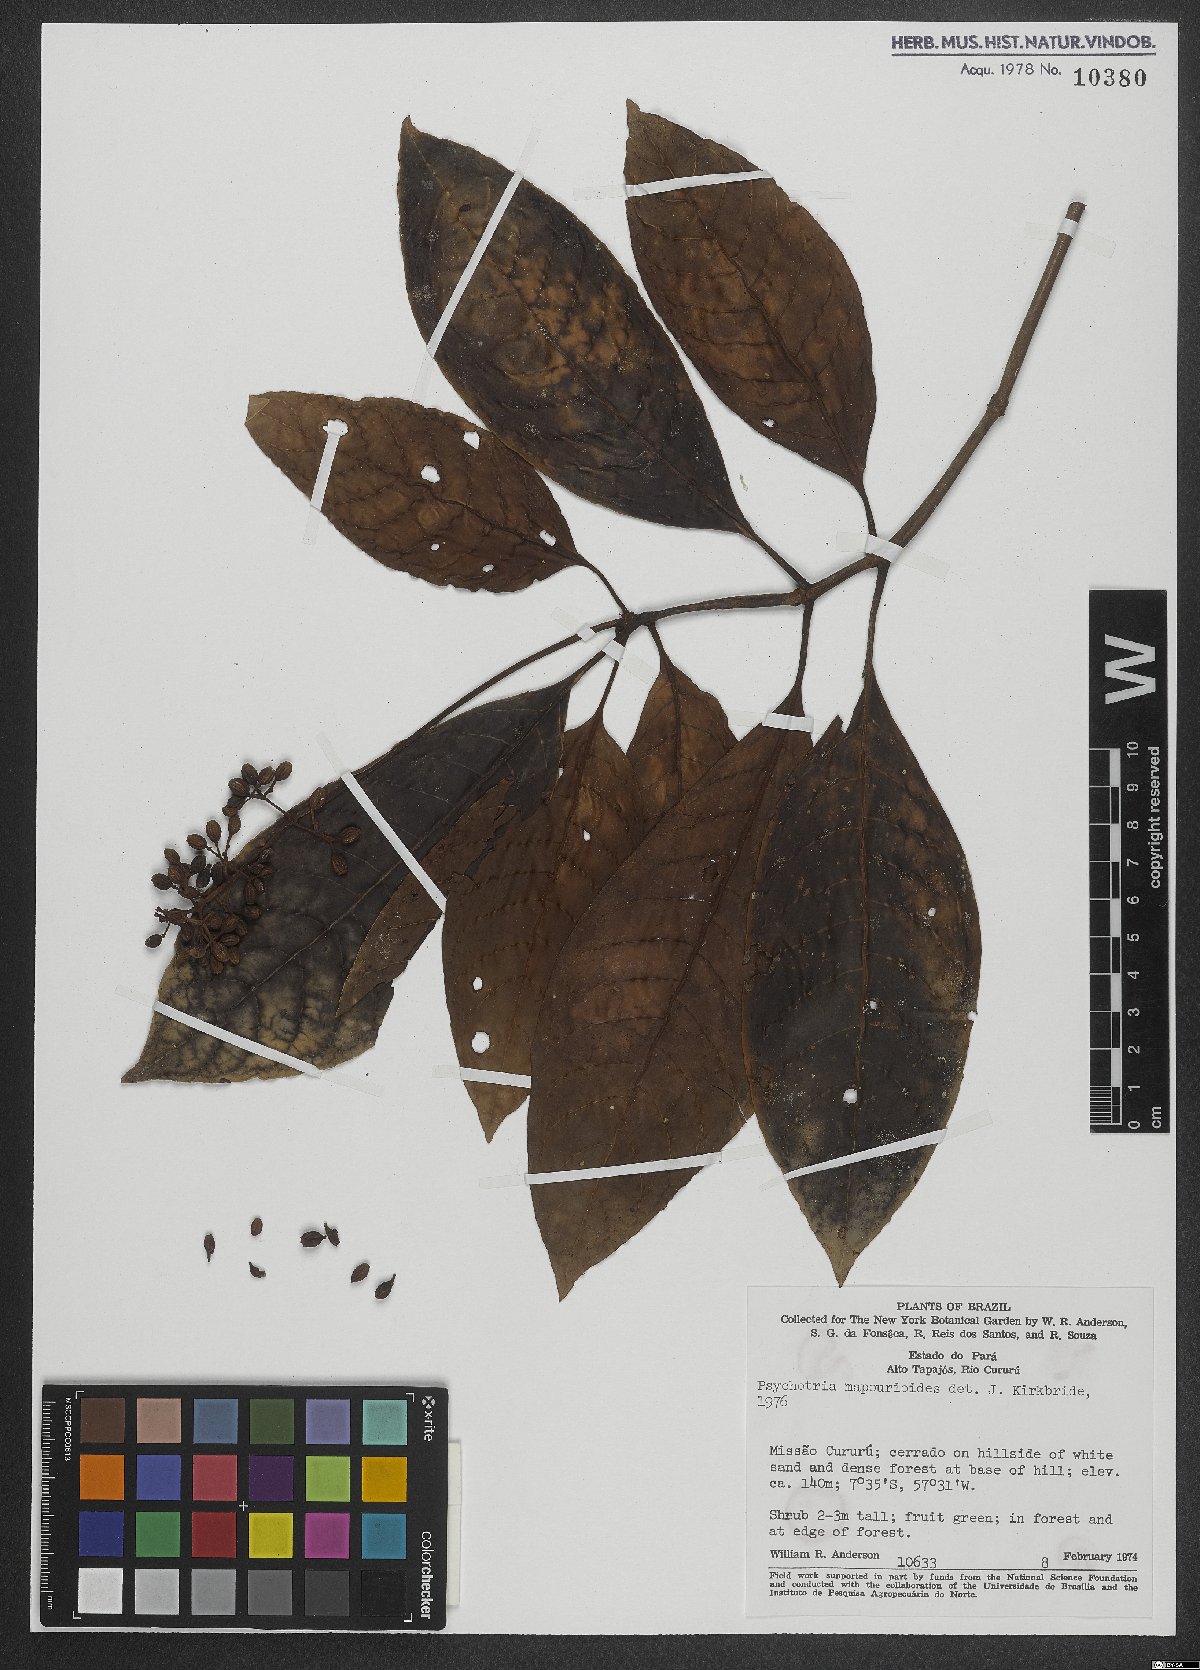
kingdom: Plantae
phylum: Tracheophyta
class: Magnoliopsida
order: Gentianales
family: Rubiaceae
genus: Psychotria
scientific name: Psychotria pedunculosa
